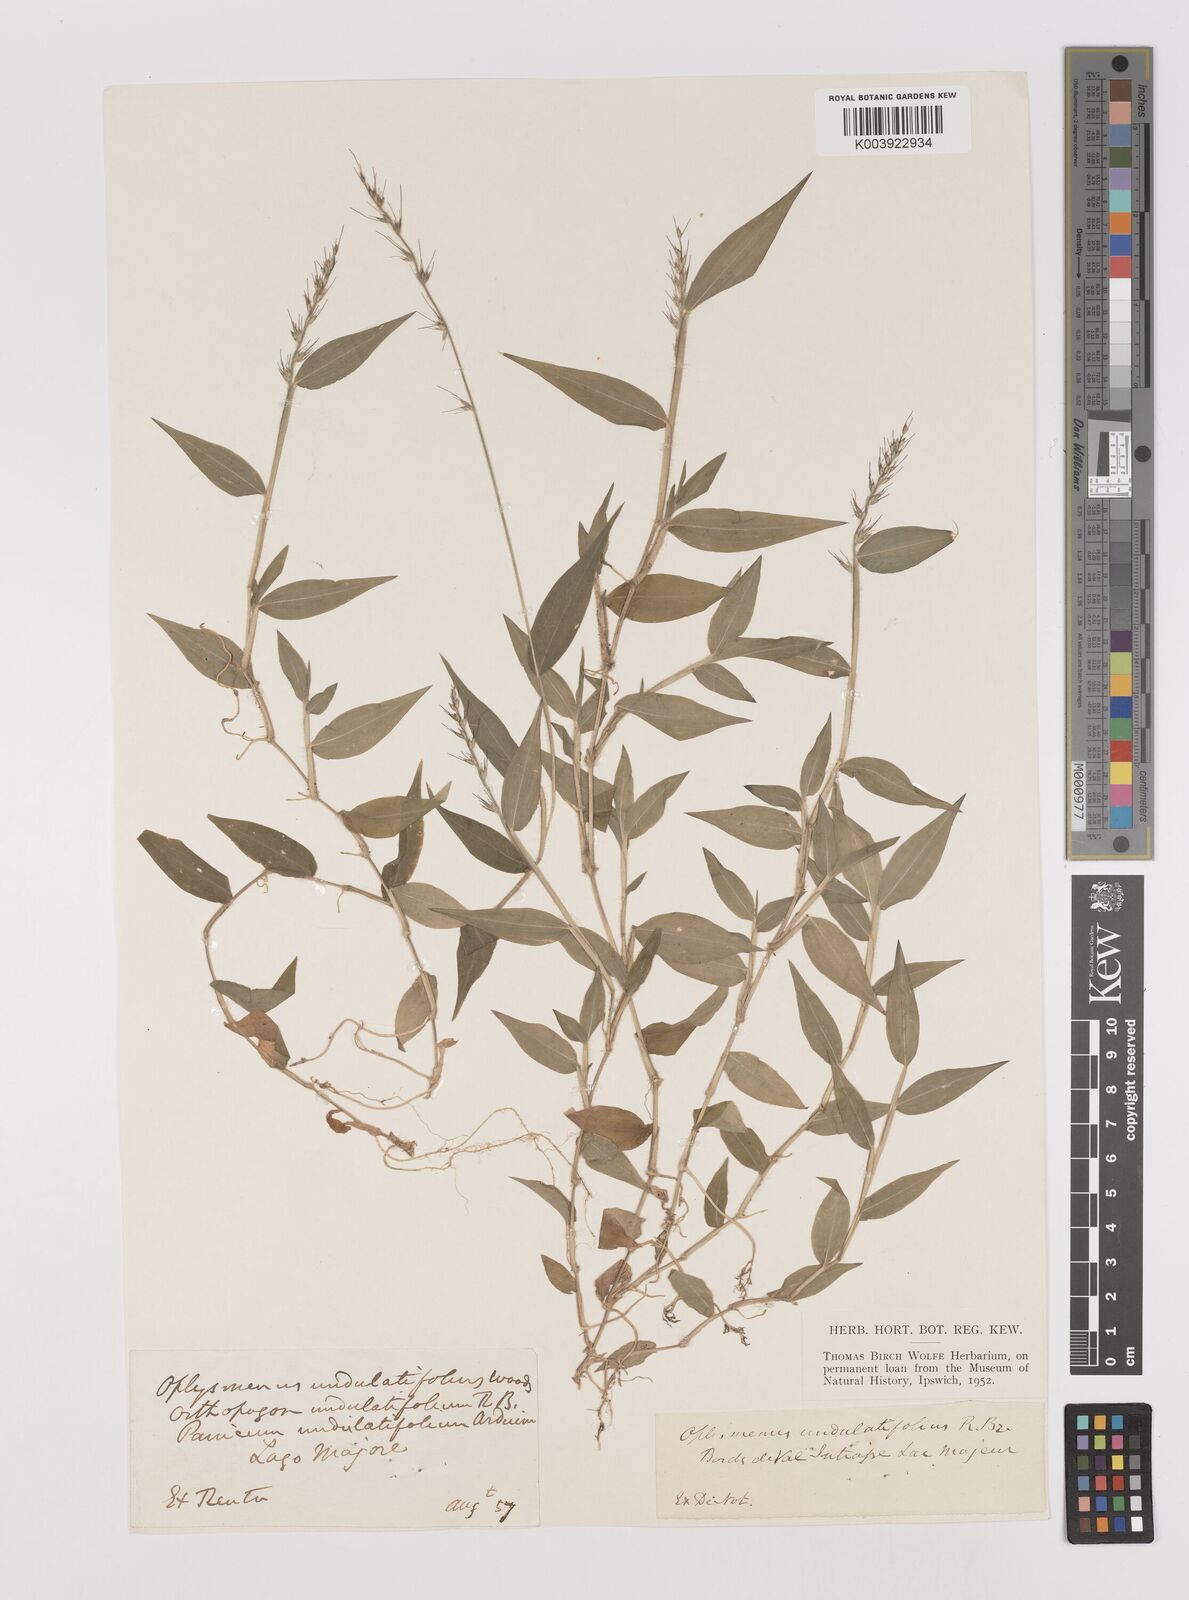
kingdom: Plantae
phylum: Tracheophyta
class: Liliopsida
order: Poales
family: Poaceae
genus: Oplismenus
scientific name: Oplismenus undulatifolius
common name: Wavyleaf basketgrass
